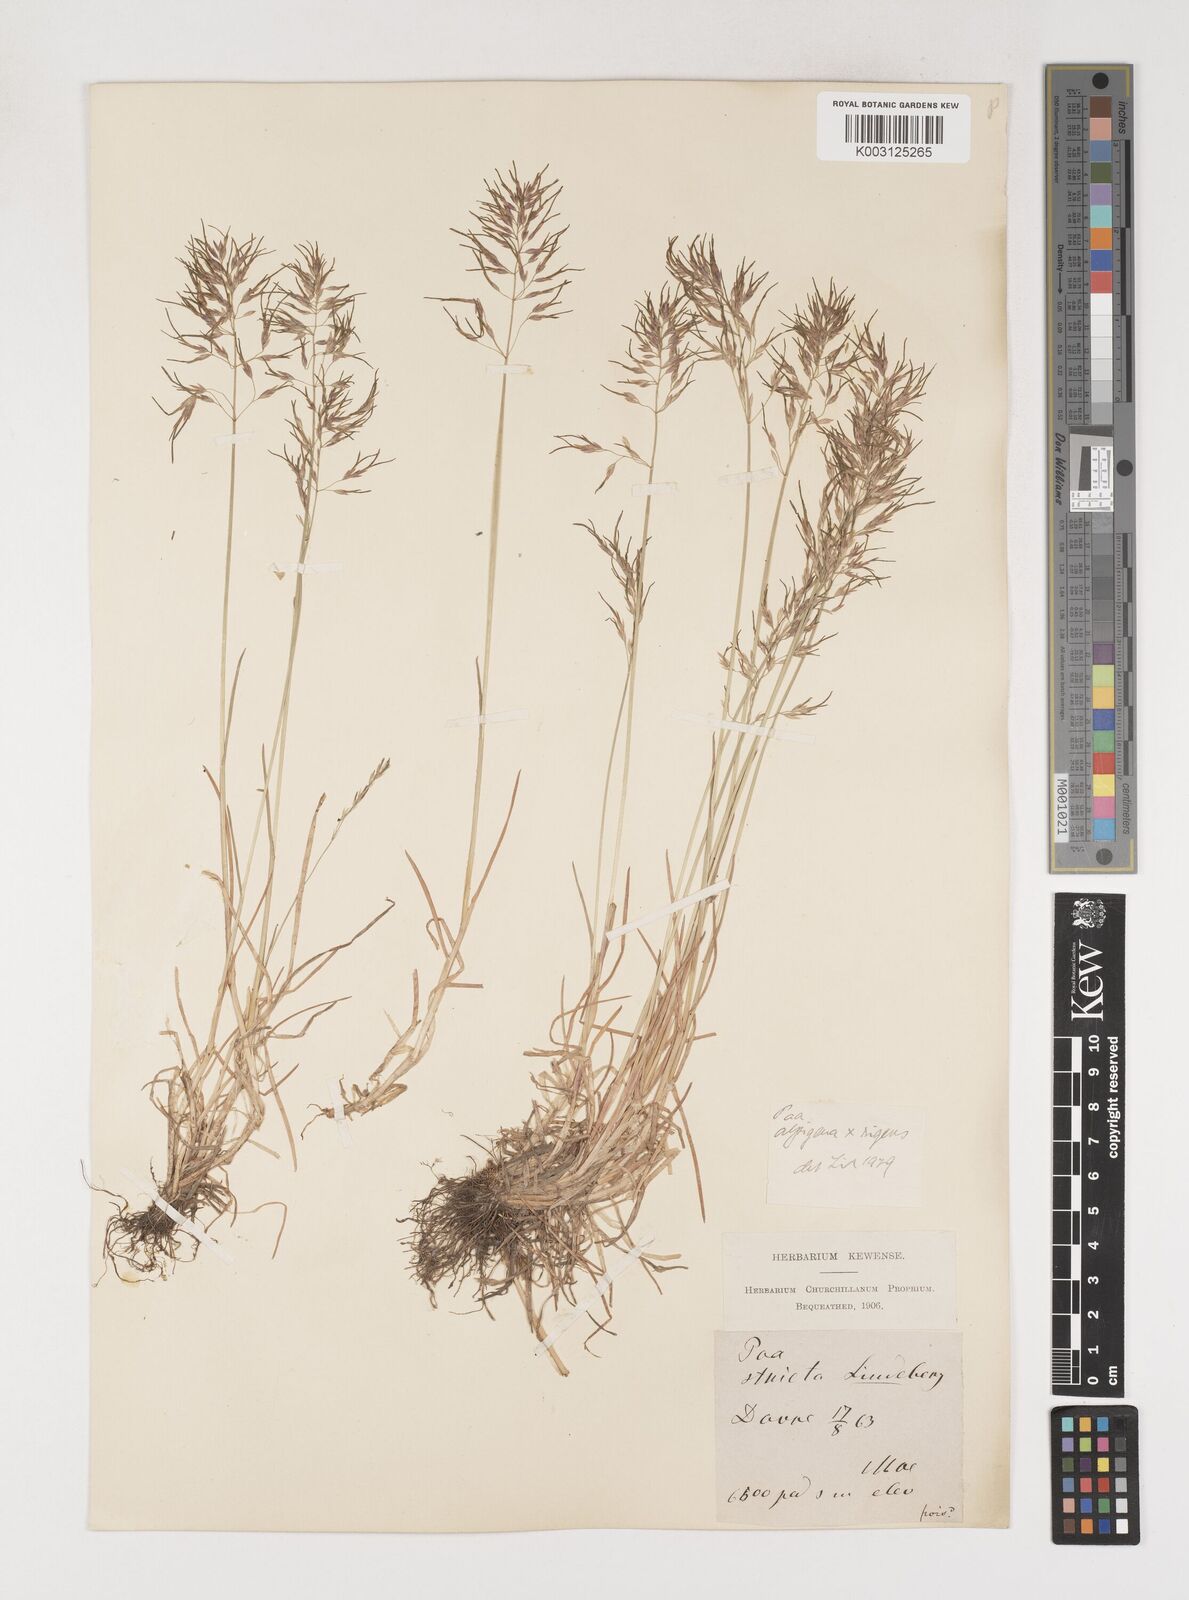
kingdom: Plantae
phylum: Tracheophyta
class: Liliopsida
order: Poales
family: Poaceae
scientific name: Poaceae
